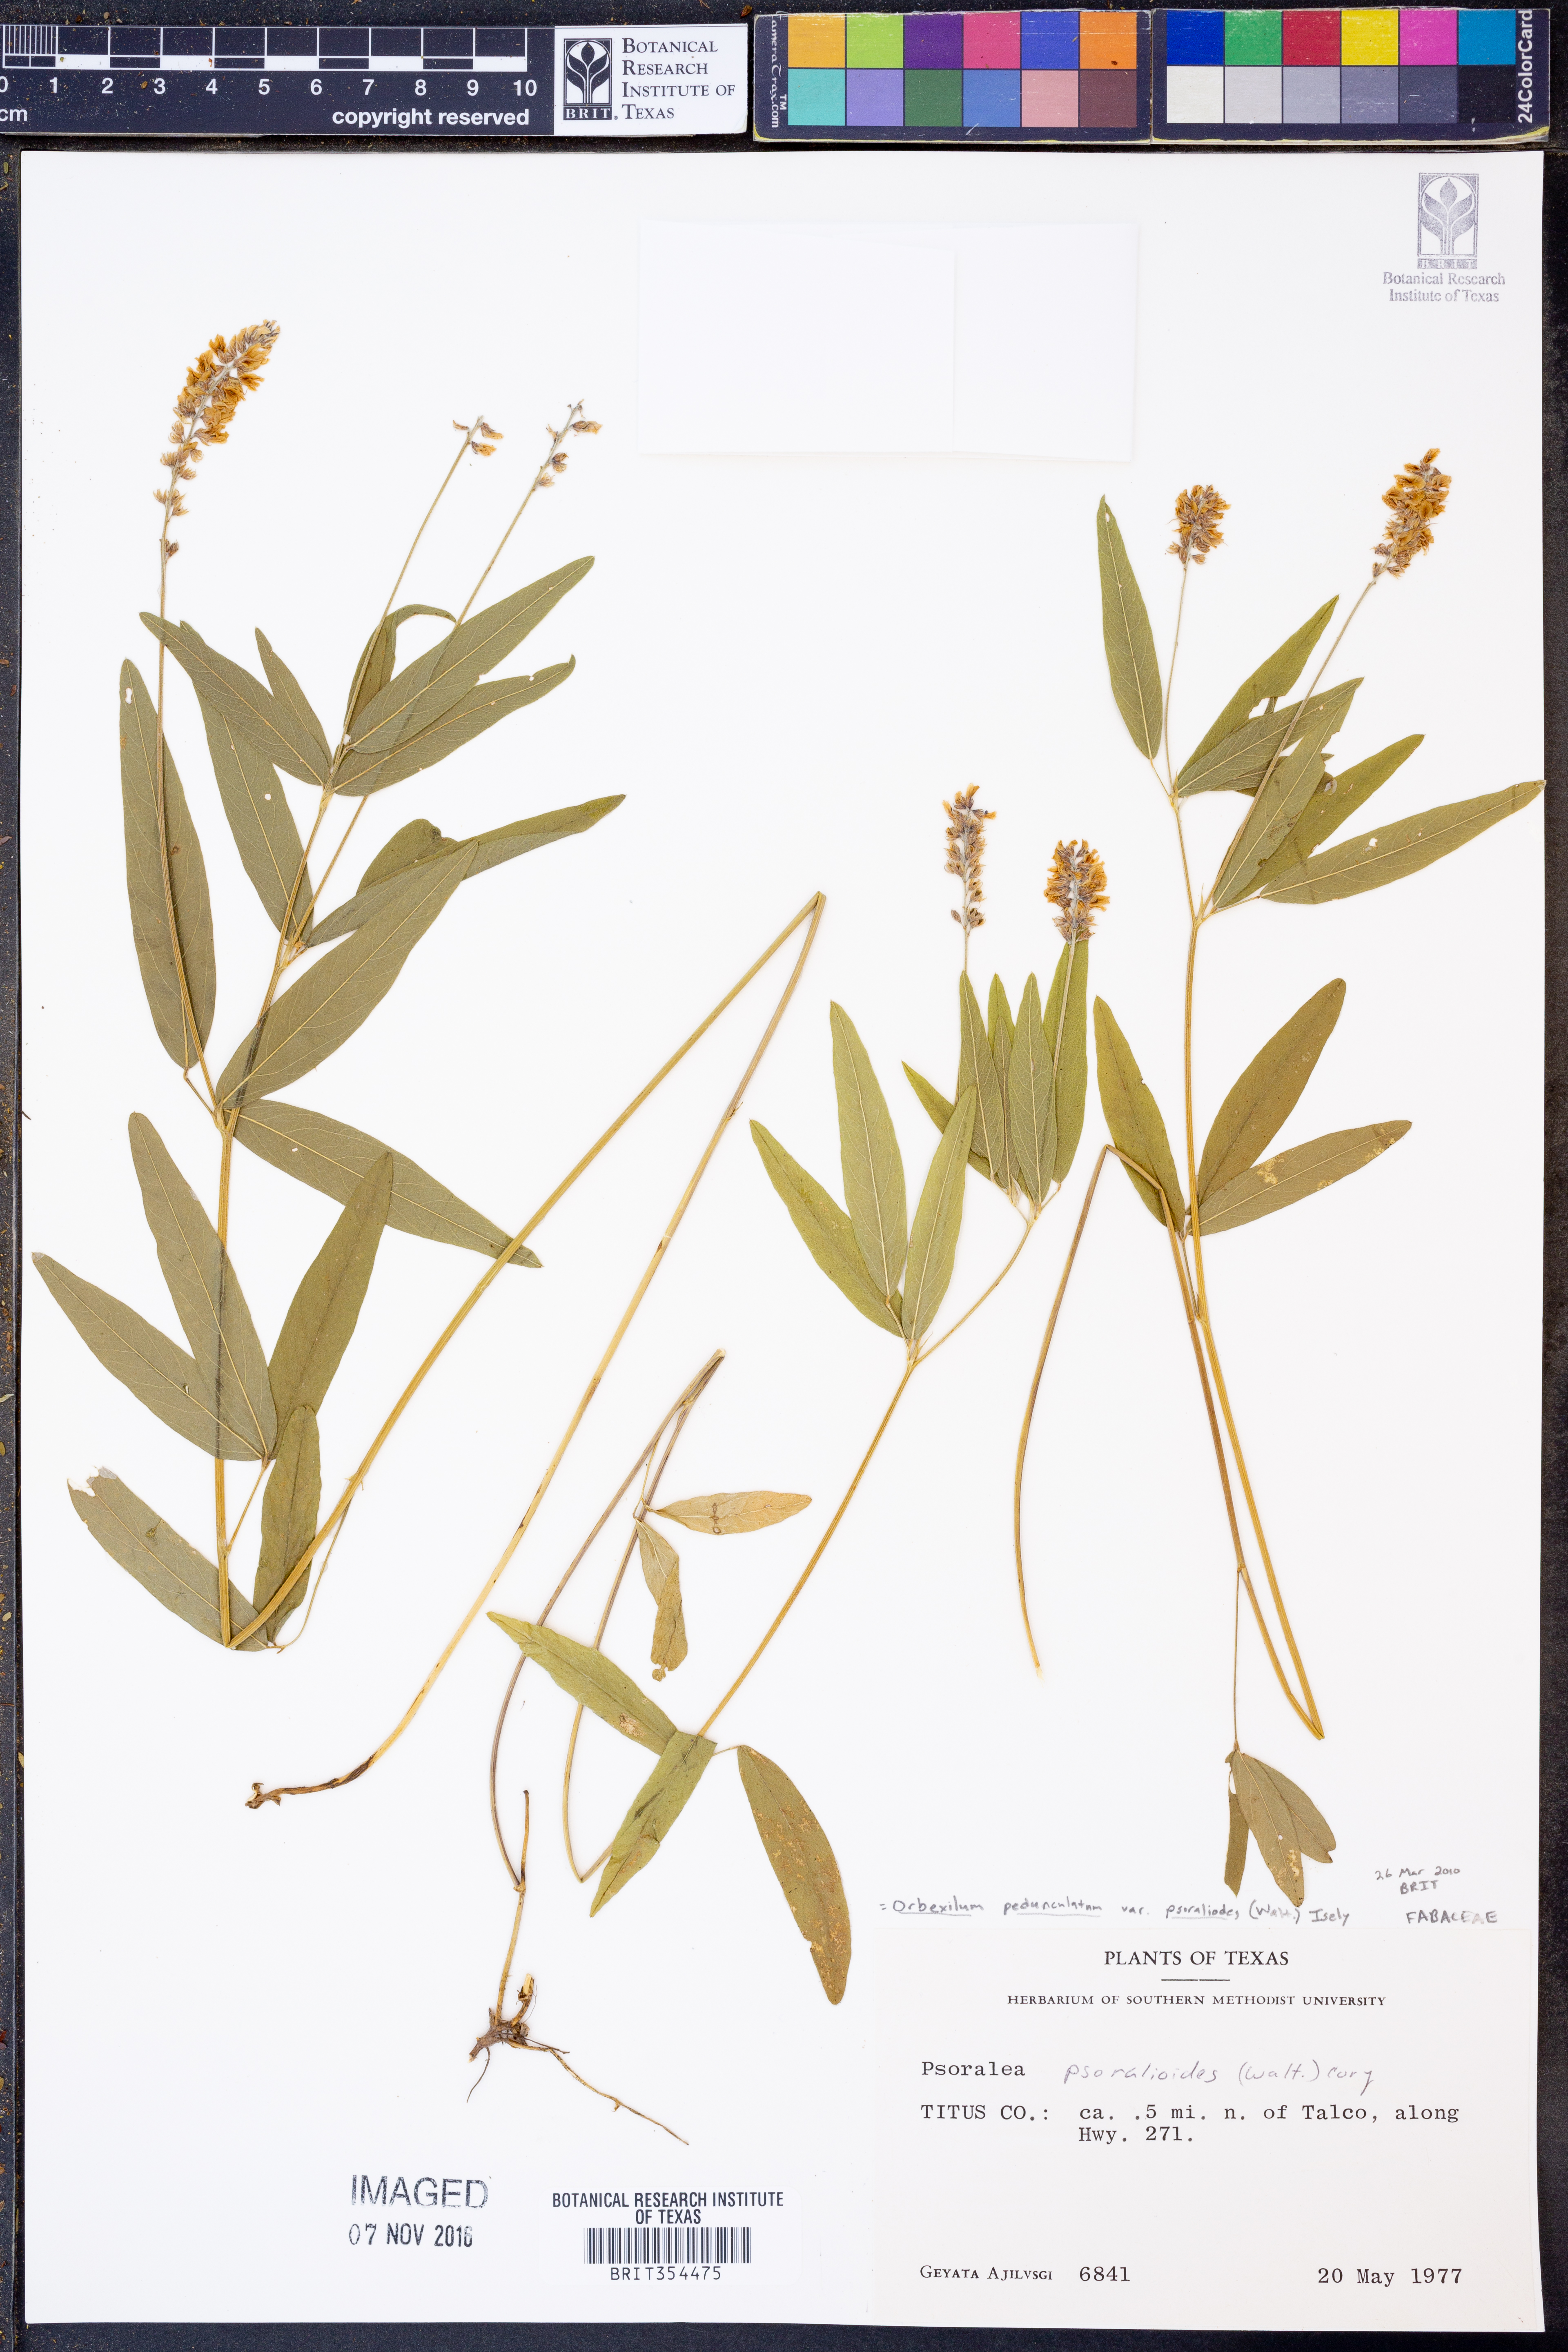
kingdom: Plantae
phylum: Tracheophyta
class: Magnoliopsida
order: Fabales
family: Fabaceae
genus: Orbexilum
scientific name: Orbexilum psoralioides
